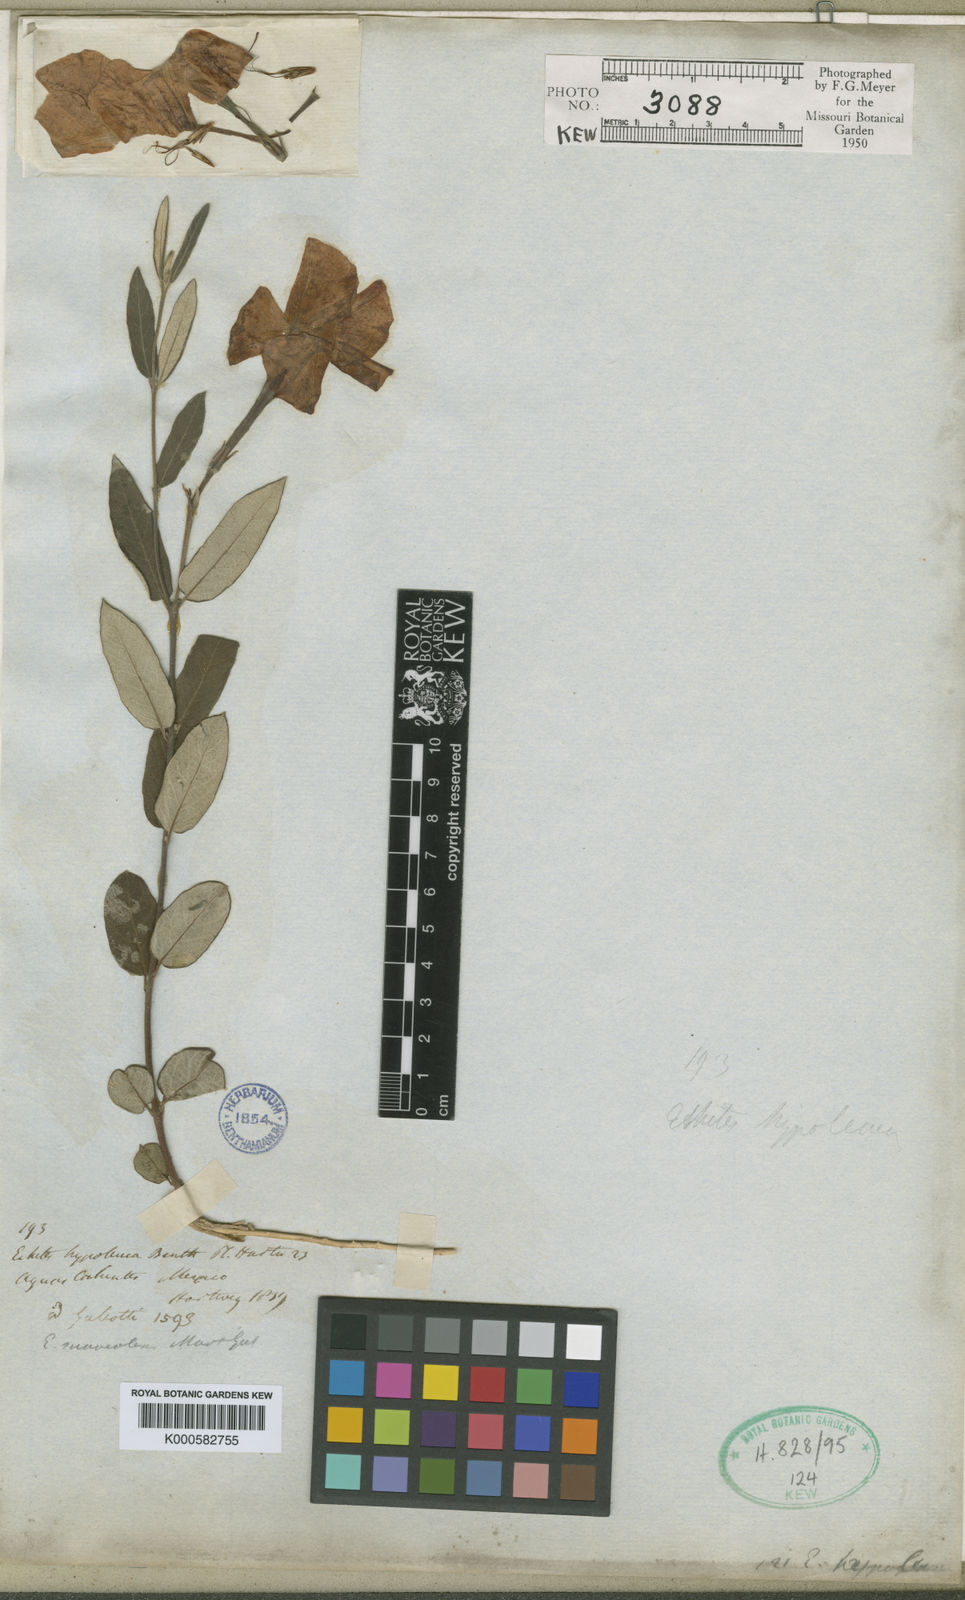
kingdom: Plantae
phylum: Tracheophyta
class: Magnoliopsida
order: Gentianales
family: Apocynaceae
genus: Mandevilla
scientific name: Mandevilla hypoleuca
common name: Davis mountain rocktrumpet
